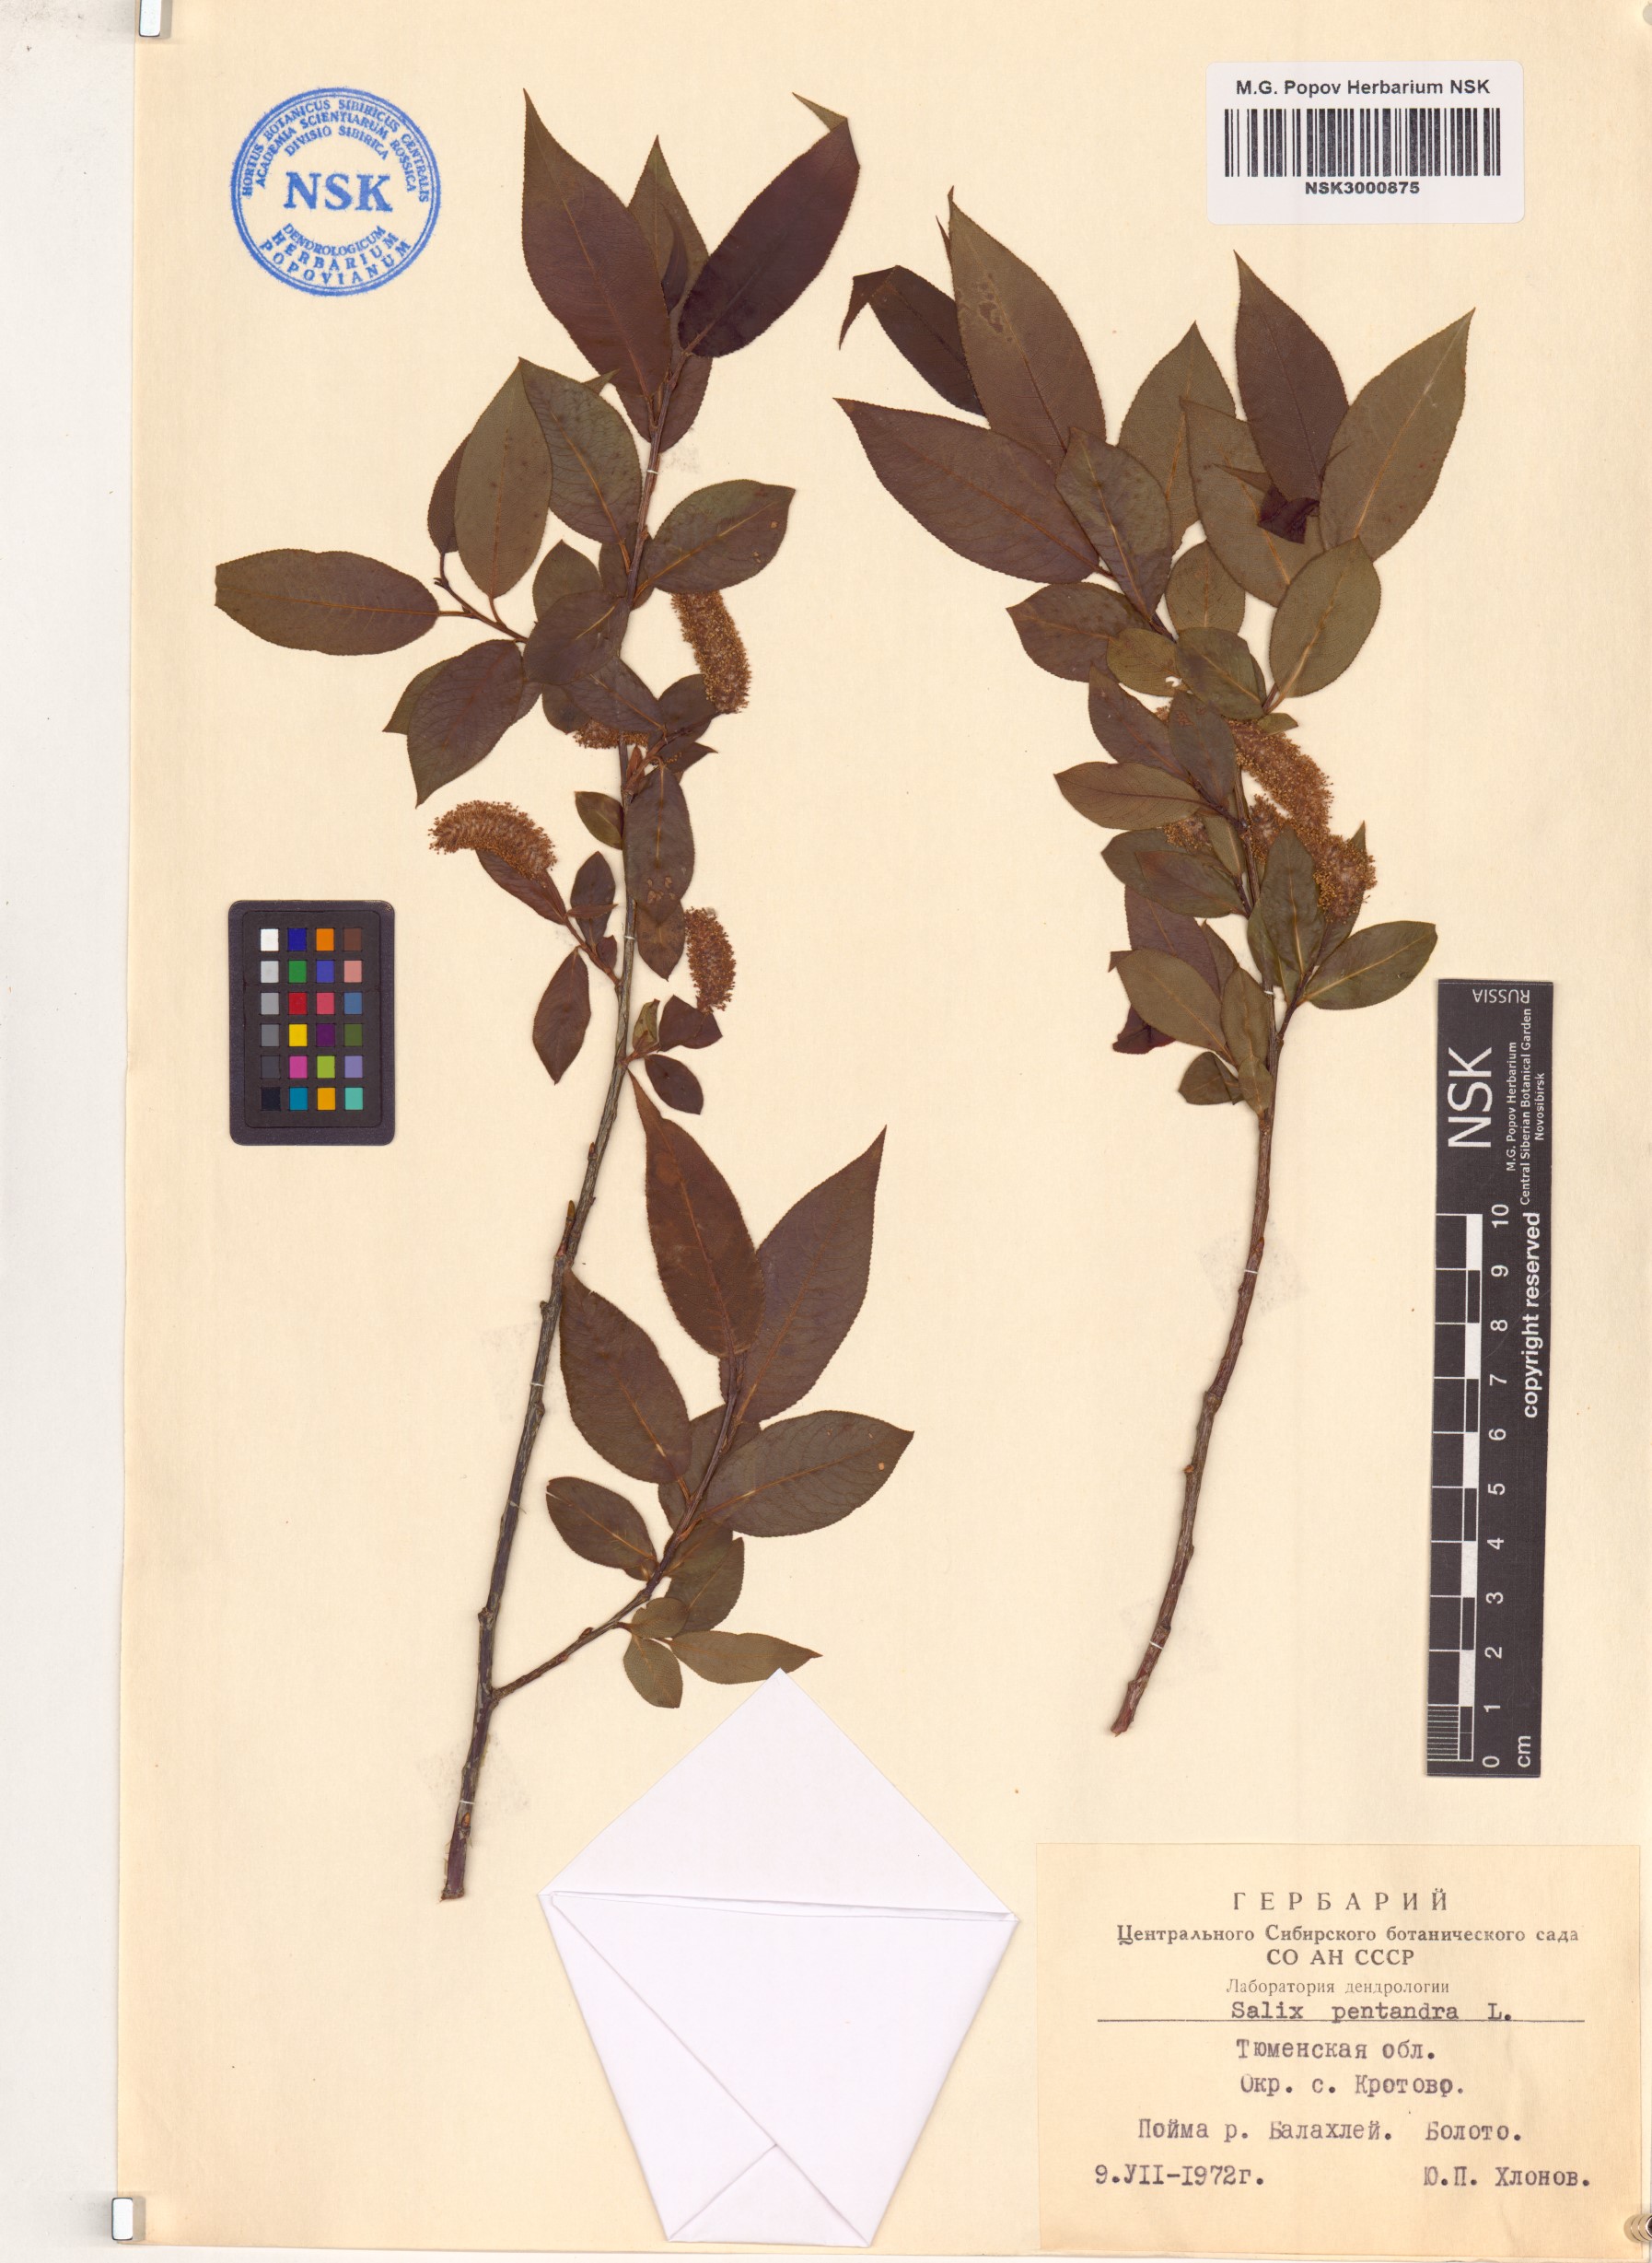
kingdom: Plantae
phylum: Tracheophyta
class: Magnoliopsida
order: Malpighiales
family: Salicaceae
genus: Salix
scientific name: Salix pentandra
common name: Bay willow
